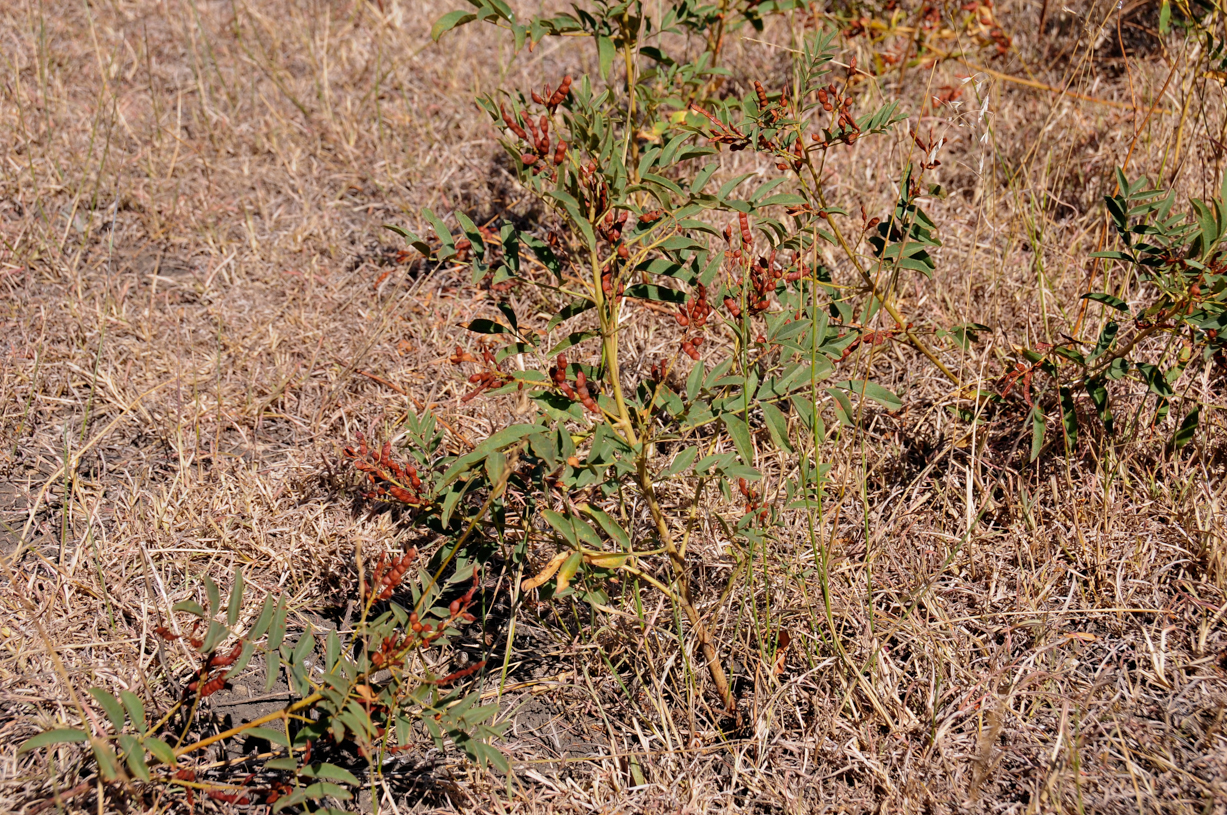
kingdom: Plantae
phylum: Tracheophyta
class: Magnoliopsida
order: Fabales
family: Fabaceae
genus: Glycyrrhiza
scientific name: Glycyrrhiza glabra
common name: Liquorice
